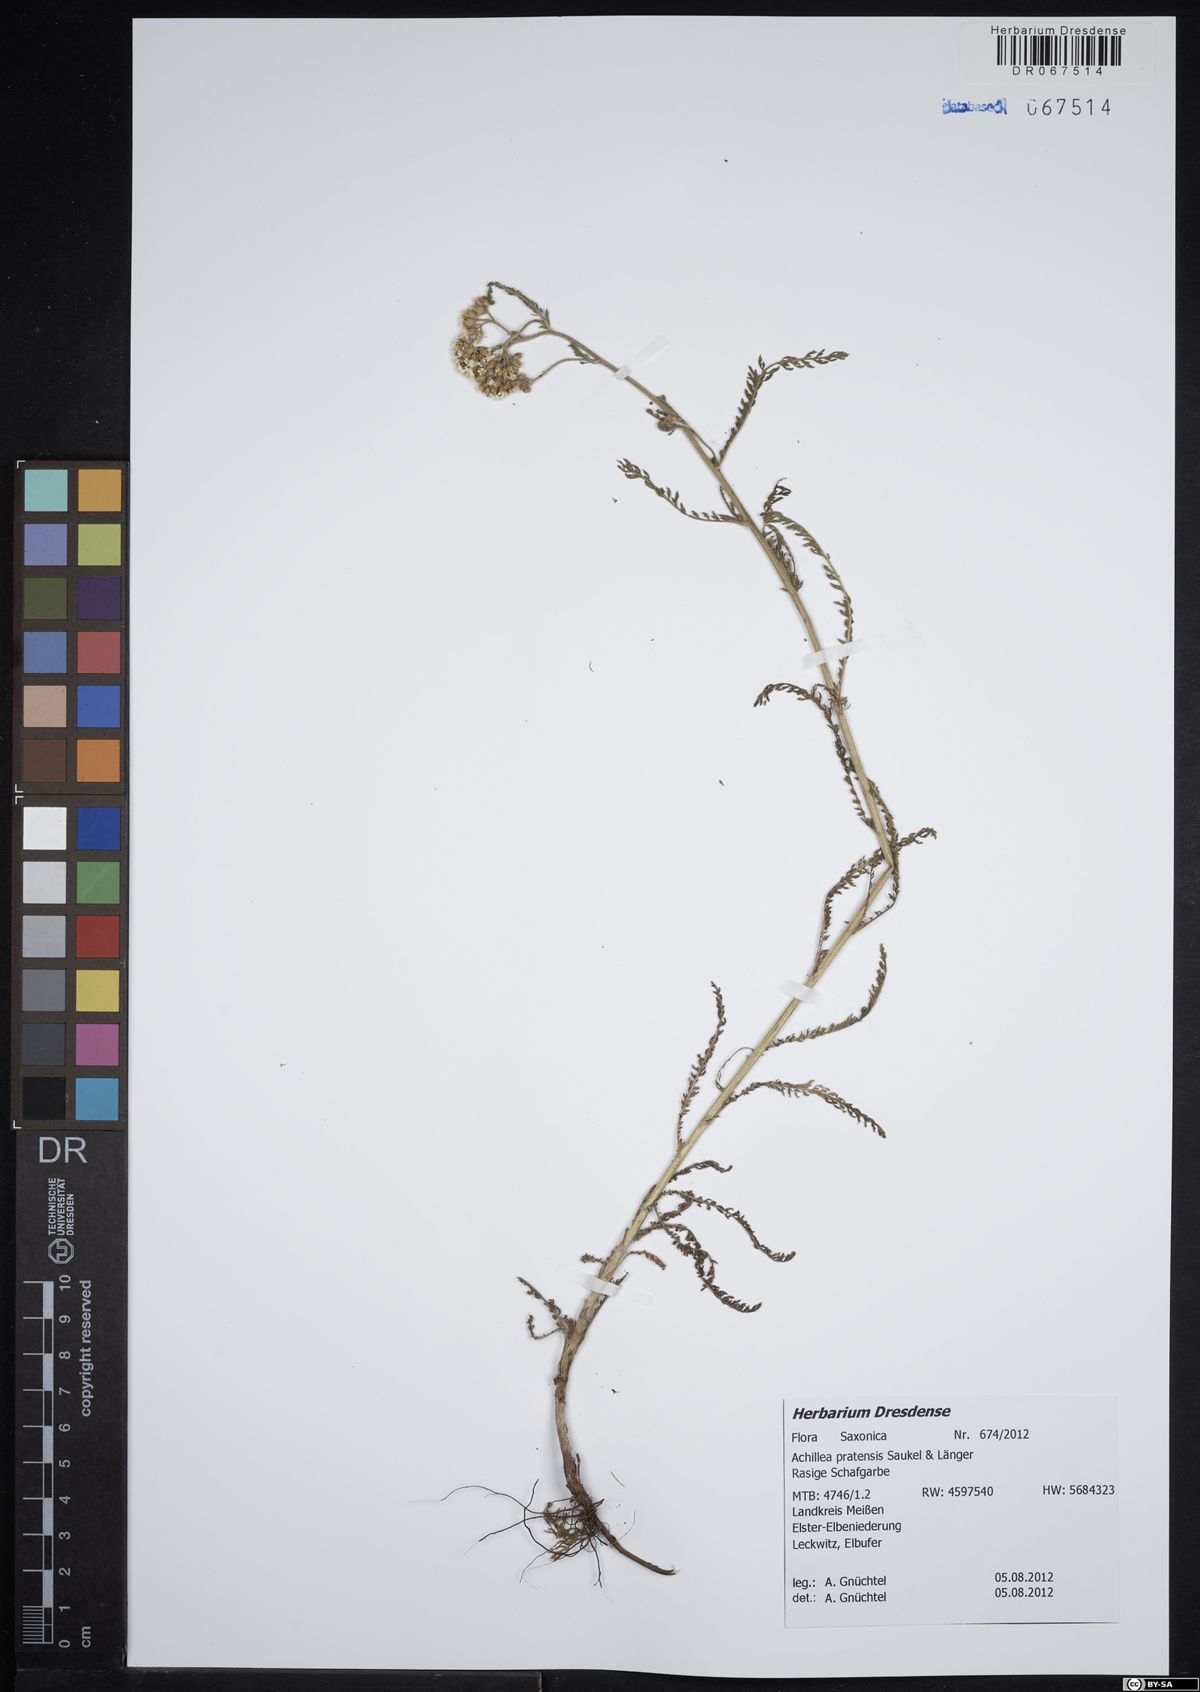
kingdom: Plantae
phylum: Tracheophyta
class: Magnoliopsida
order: Asterales
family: Asteraceae
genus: Achillea
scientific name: Achillea pratensis
